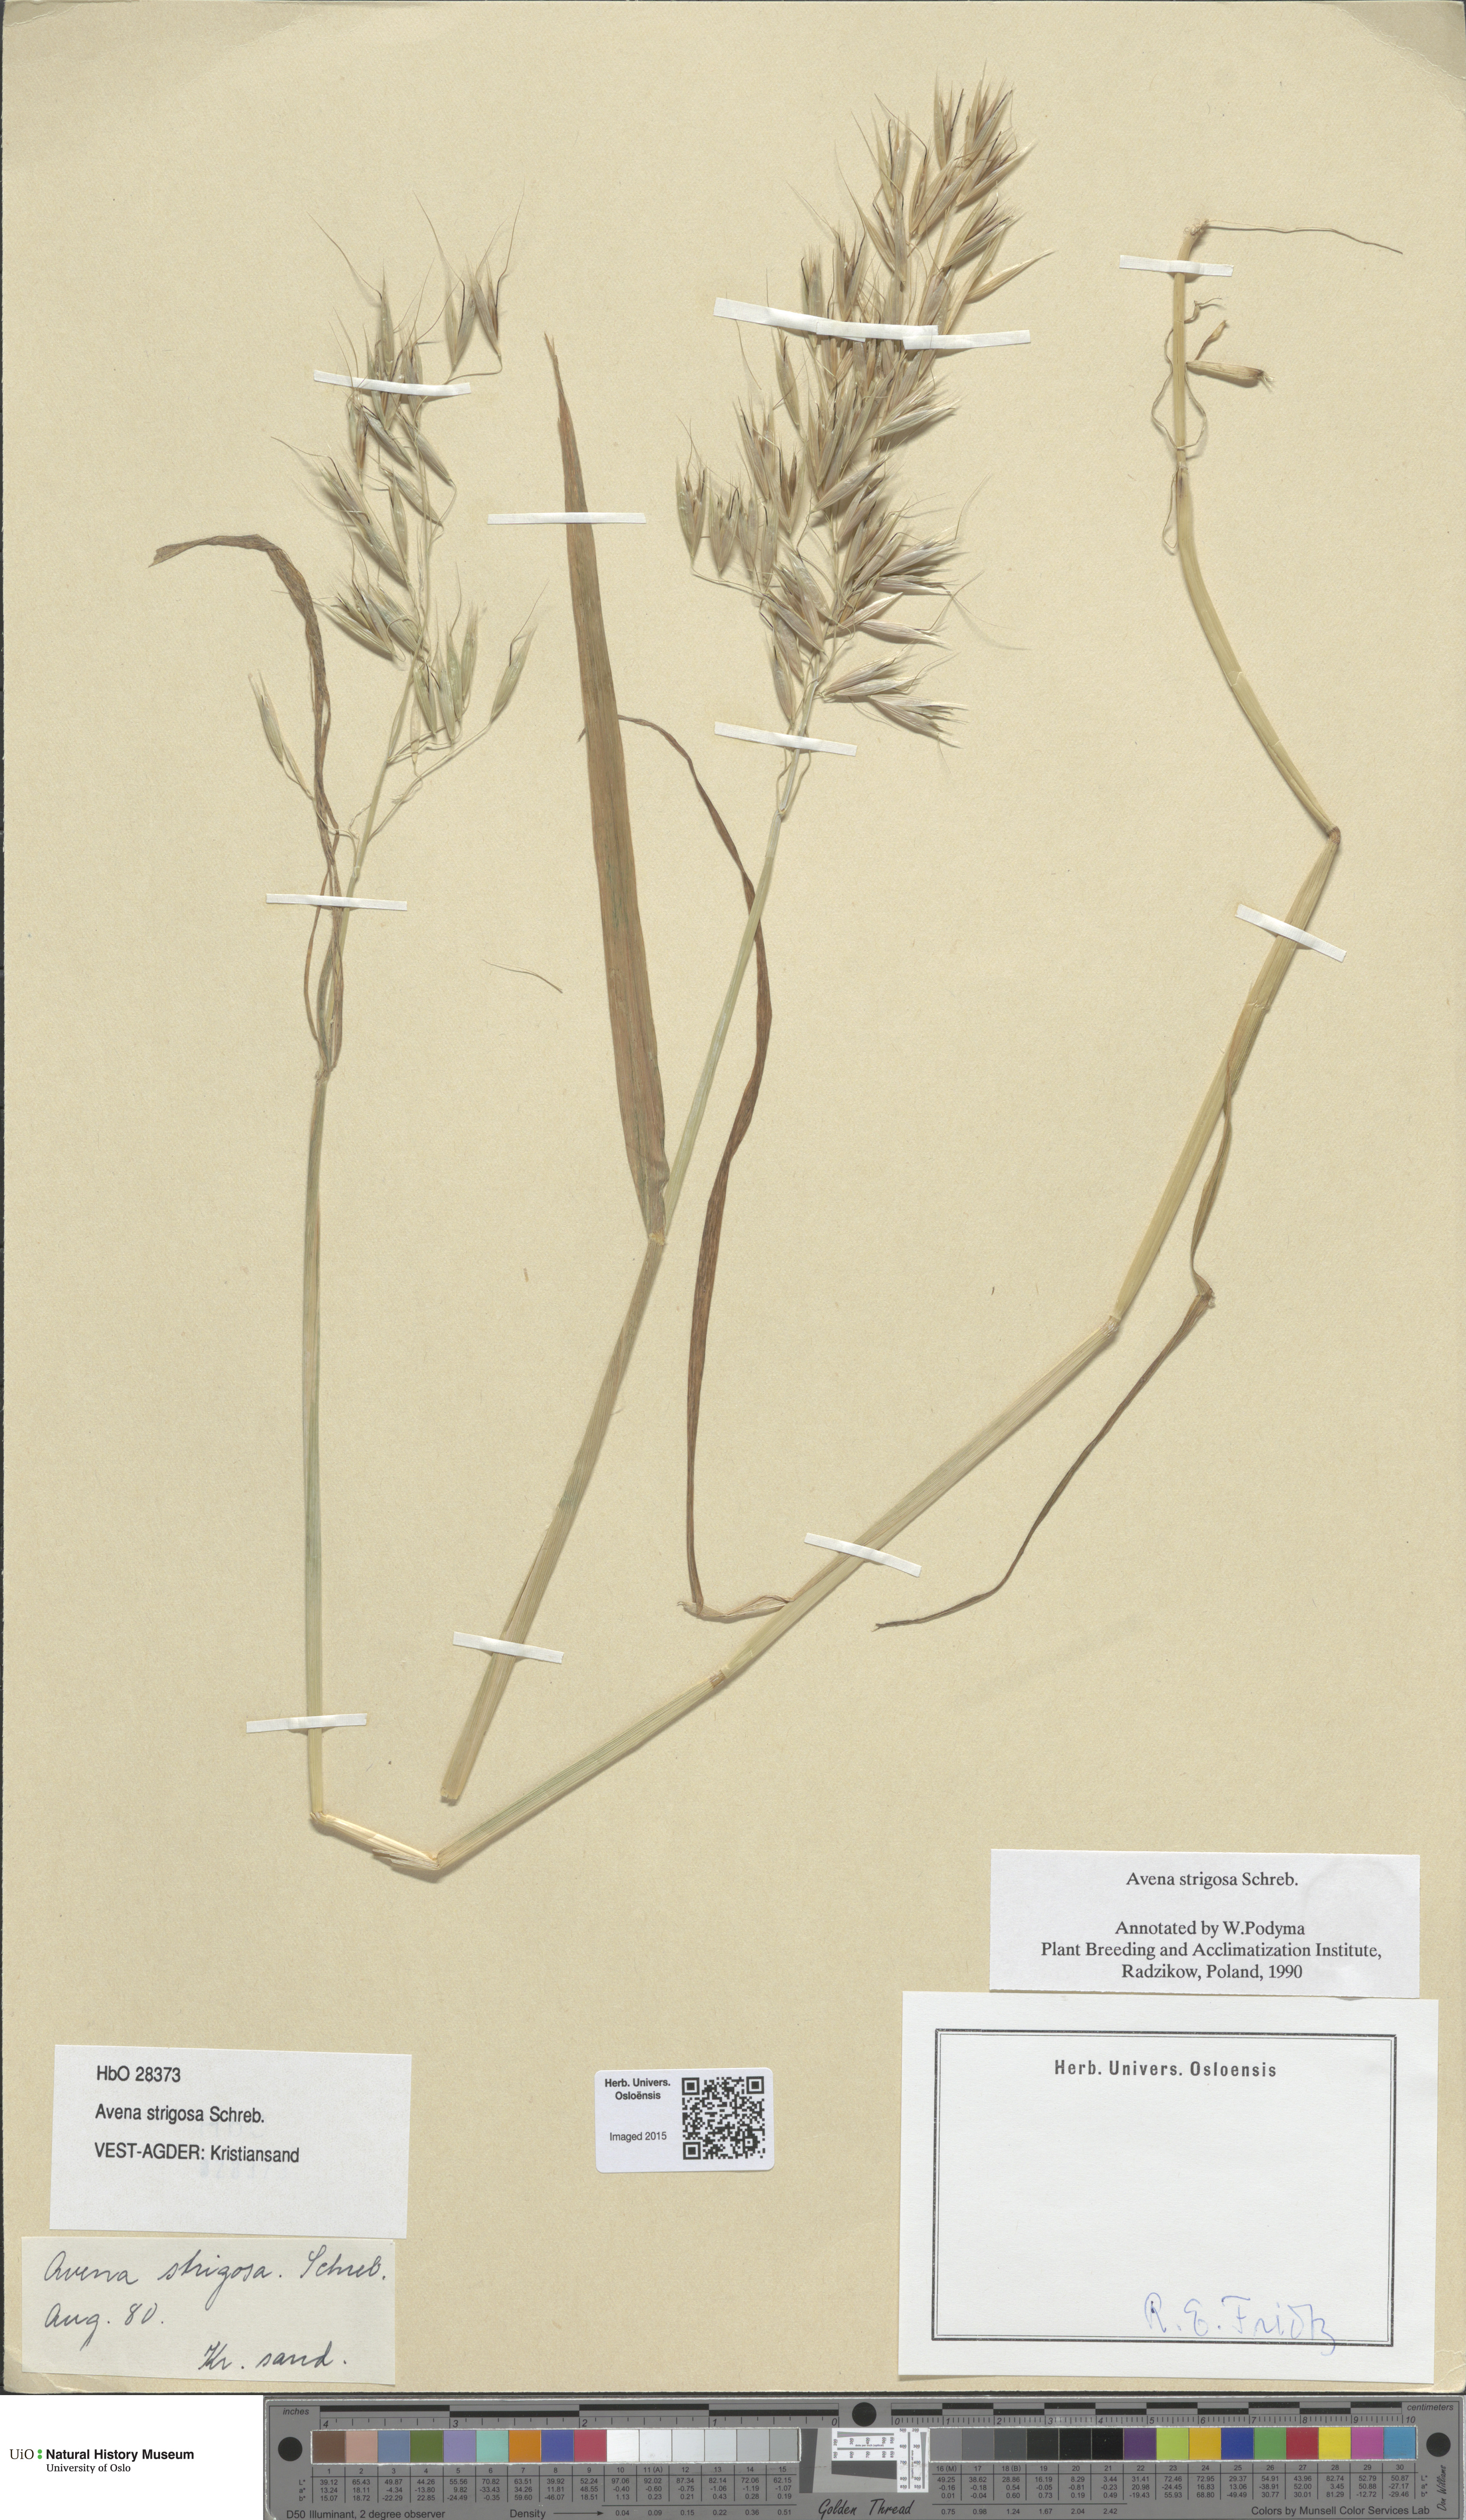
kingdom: Plantae
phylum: Tracheophyta
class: Liliopsida
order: Poales
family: Poaceae
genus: Avena
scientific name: Avena strigosa
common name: Bristle oat
